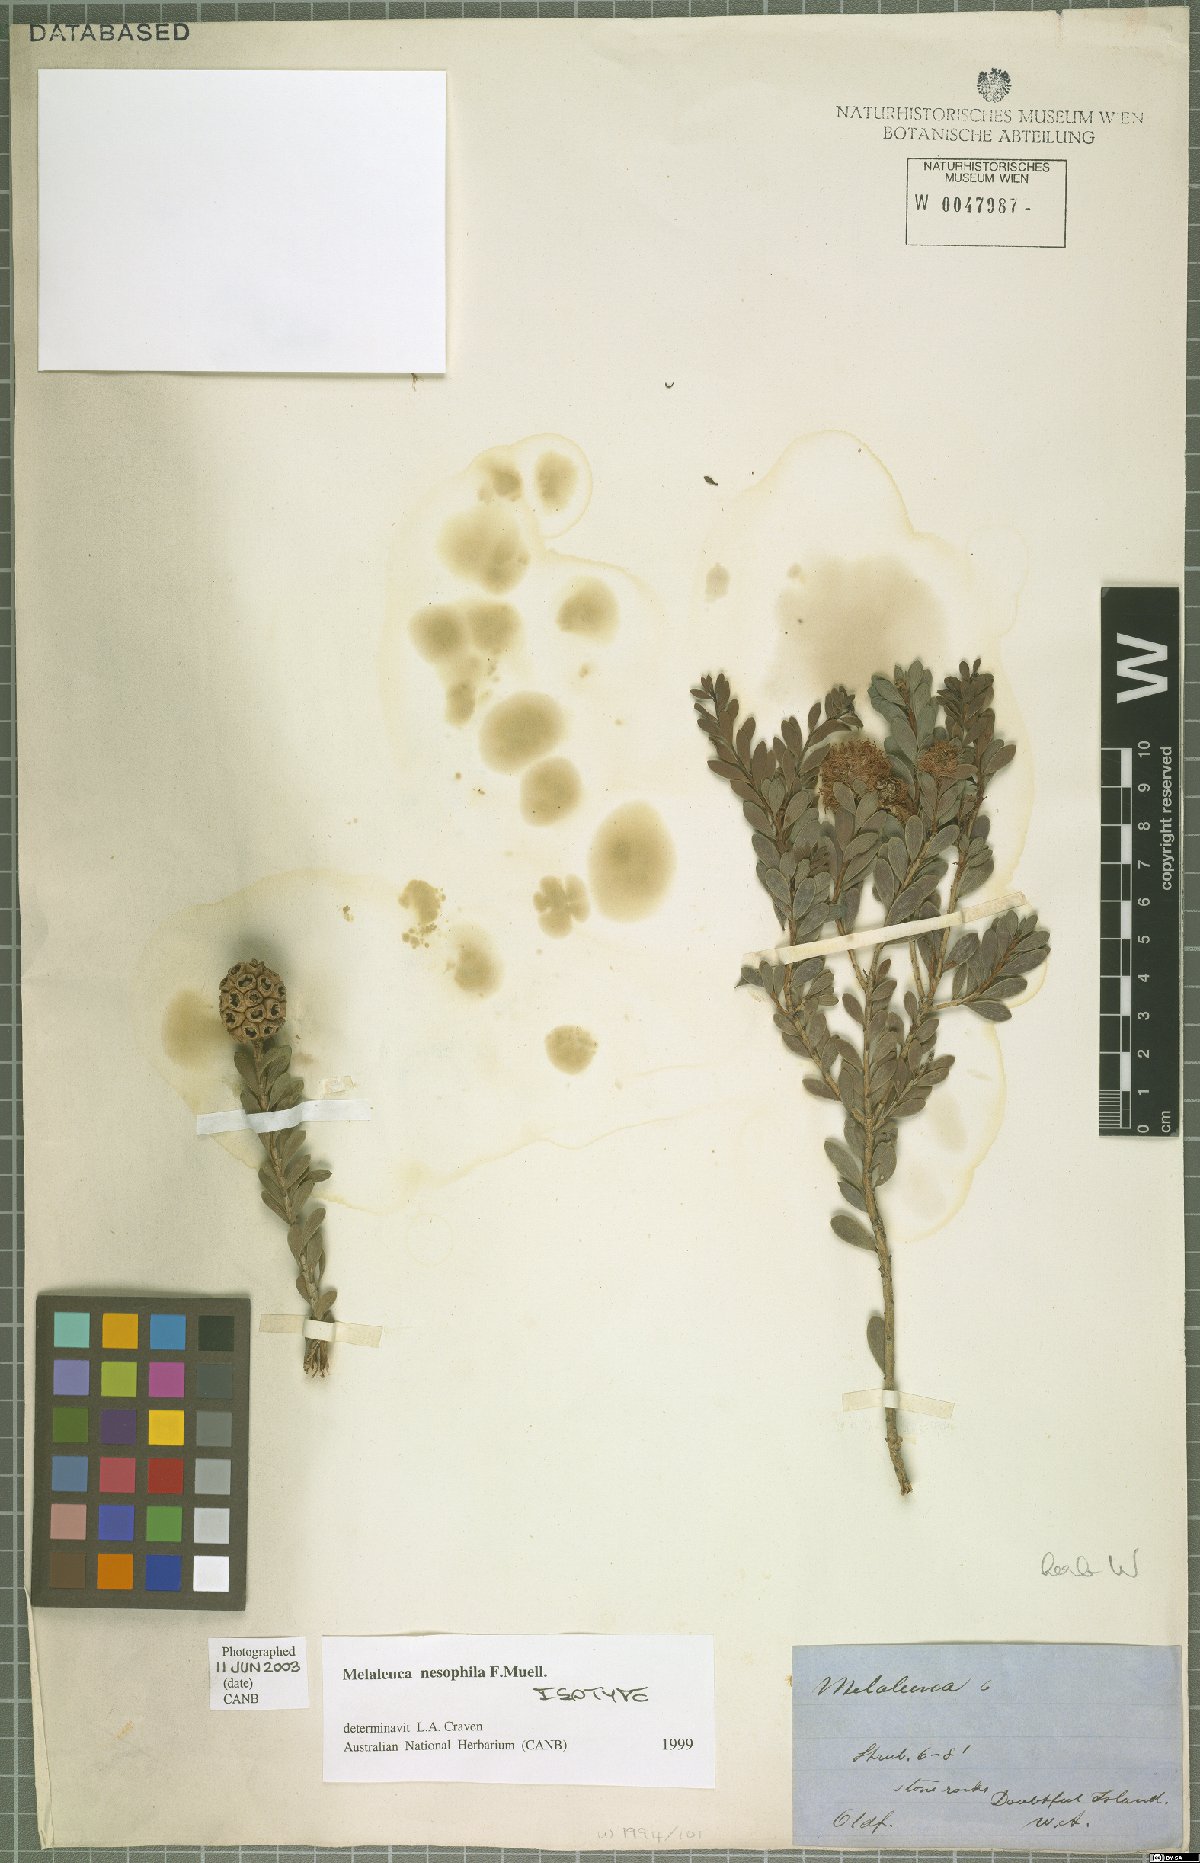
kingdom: Plantae
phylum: Tracheophyta
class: Magnoliopsida
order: Myrtales
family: Myrtaceae
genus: Melaleuca
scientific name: Melaleuca nesophila
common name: Mauve honey myrtle
